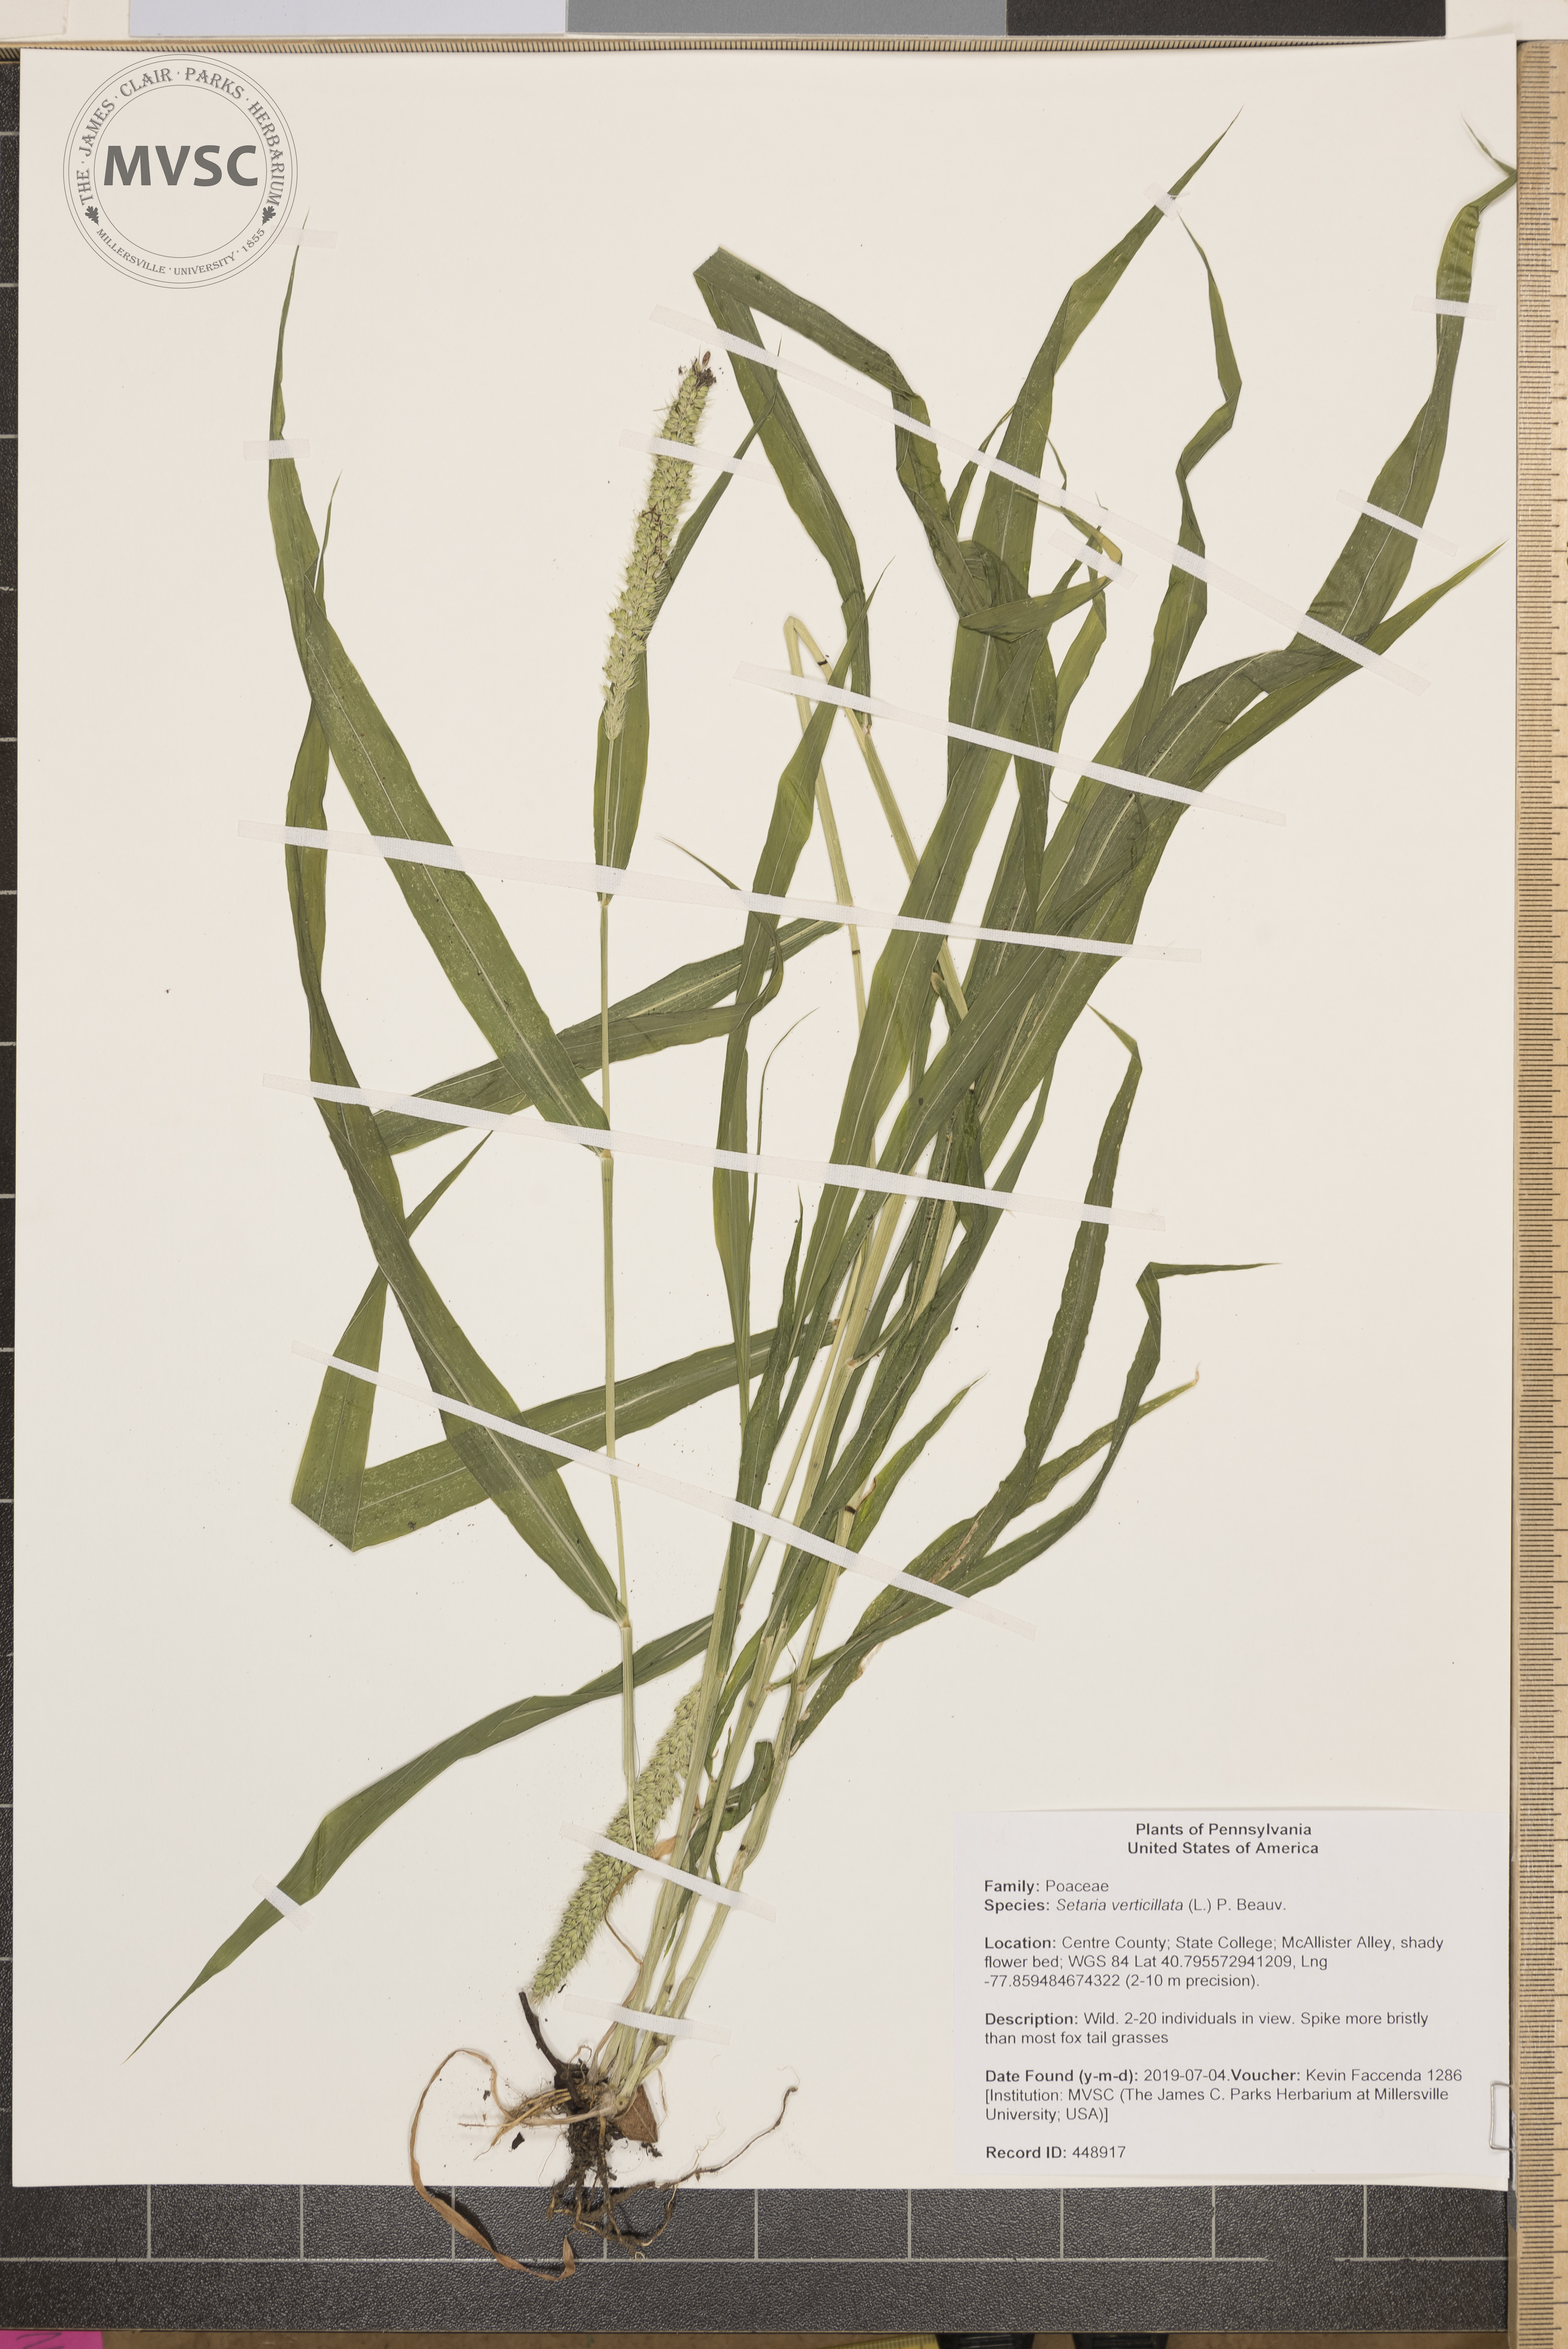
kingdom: Plantae
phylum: Tracheophyta
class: Liliopsida
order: Poales
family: Poaceae
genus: Setaria
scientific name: Setaria verticillata
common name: Hooked bristlegrass
